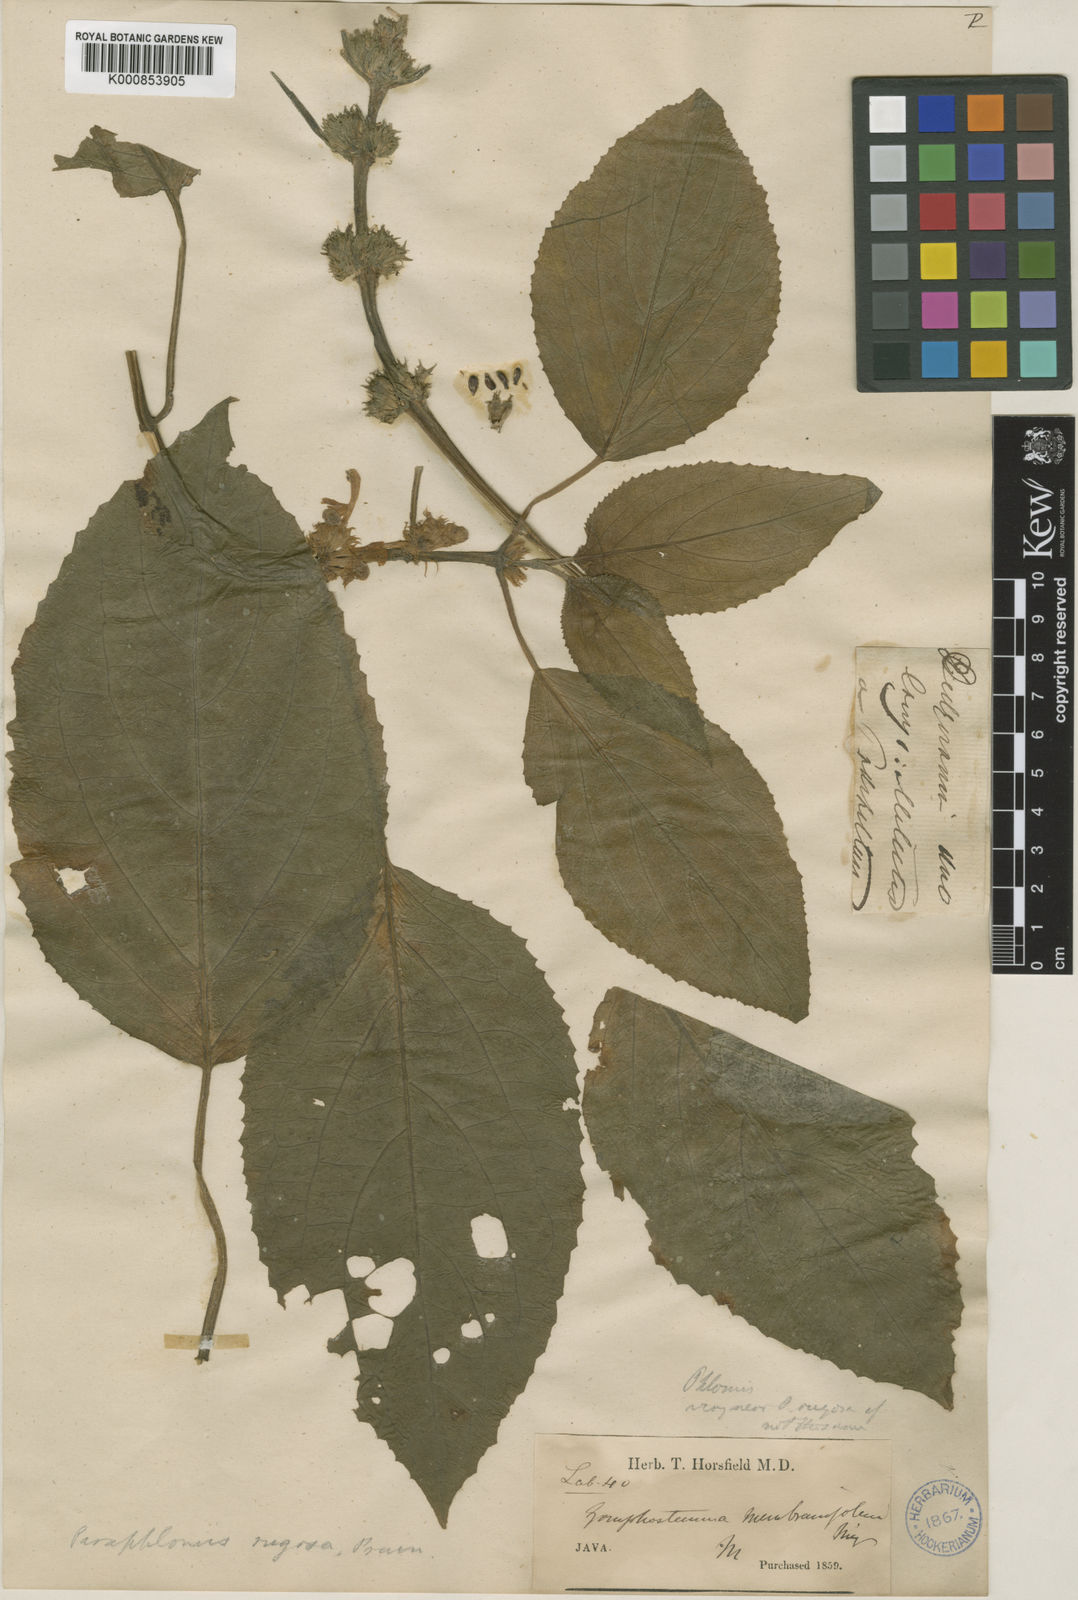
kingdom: Plantae
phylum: Tracheophyta
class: Magnoliopsida
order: Lamiales
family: Lamiaceae
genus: Paraphlomis
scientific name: Paraphlomis javanica
